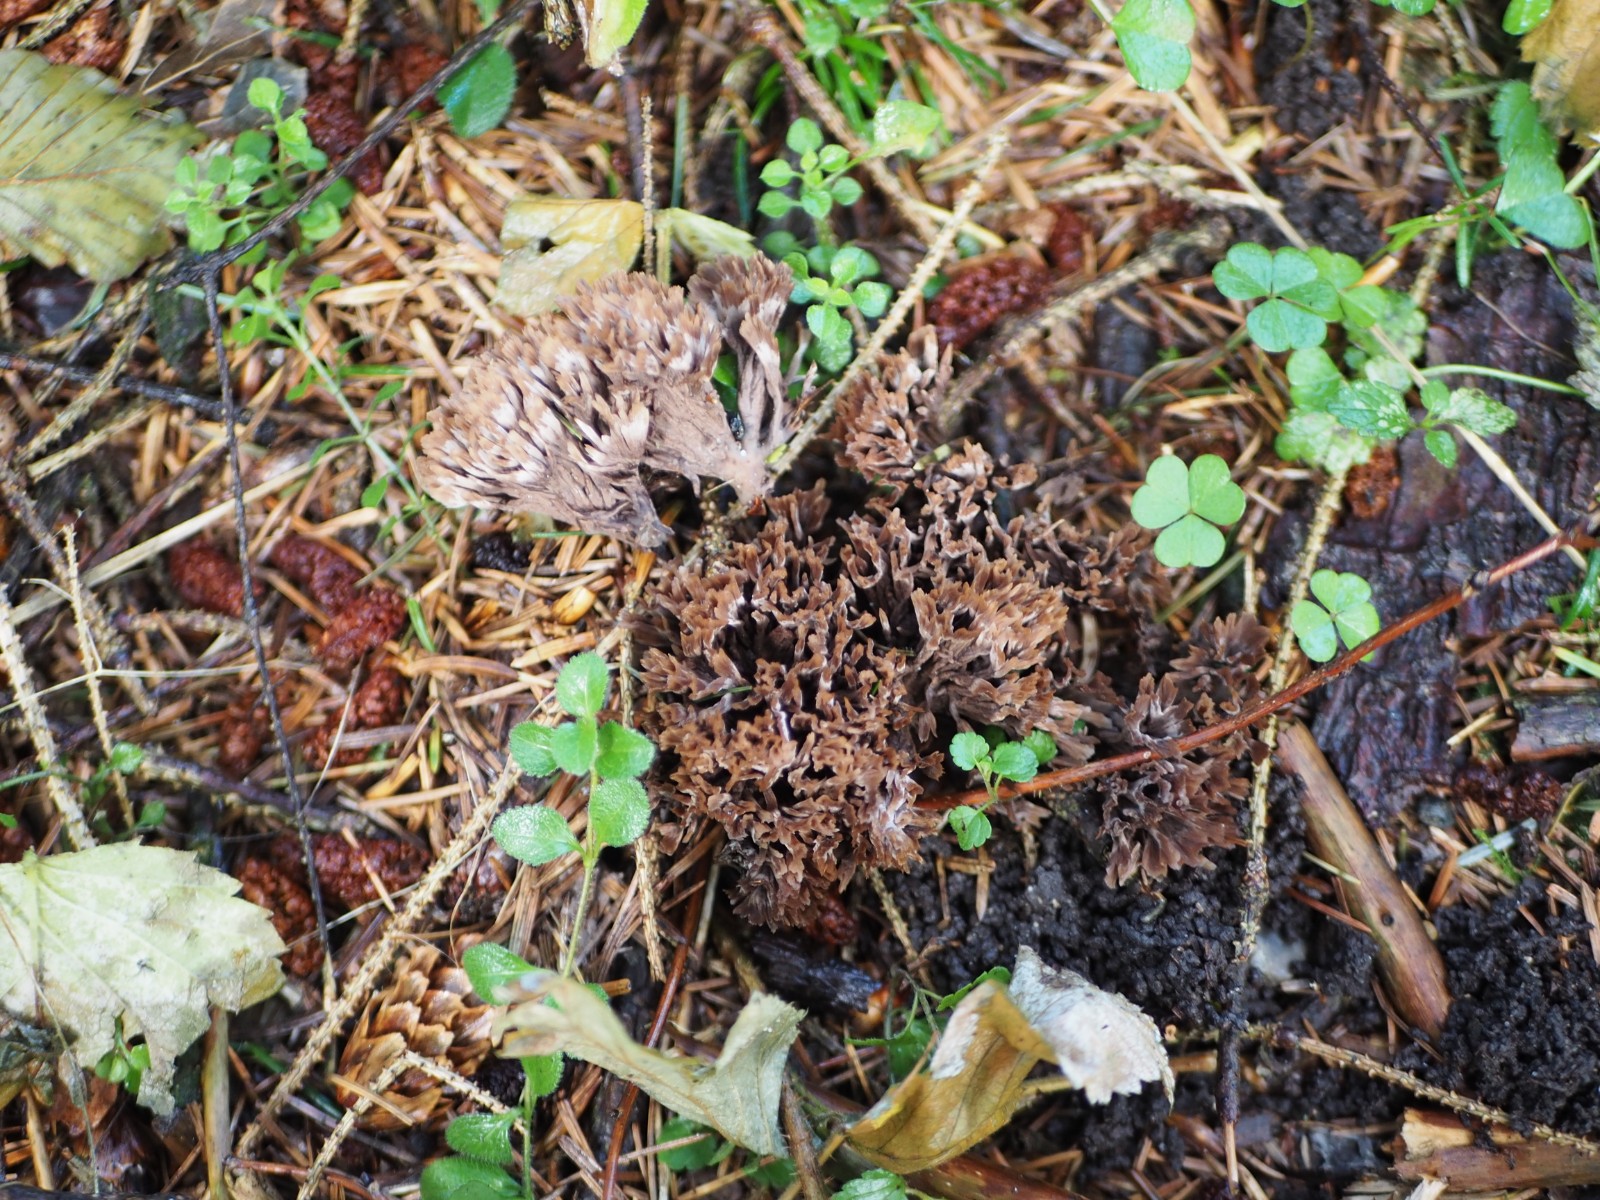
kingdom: Fungi
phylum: Basidiomycota
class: Agaricomycetes
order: Thelephorales
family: Thelephoraceae
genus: Thelephora
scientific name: Thelephora palmata
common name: grenet frynsesvamp
